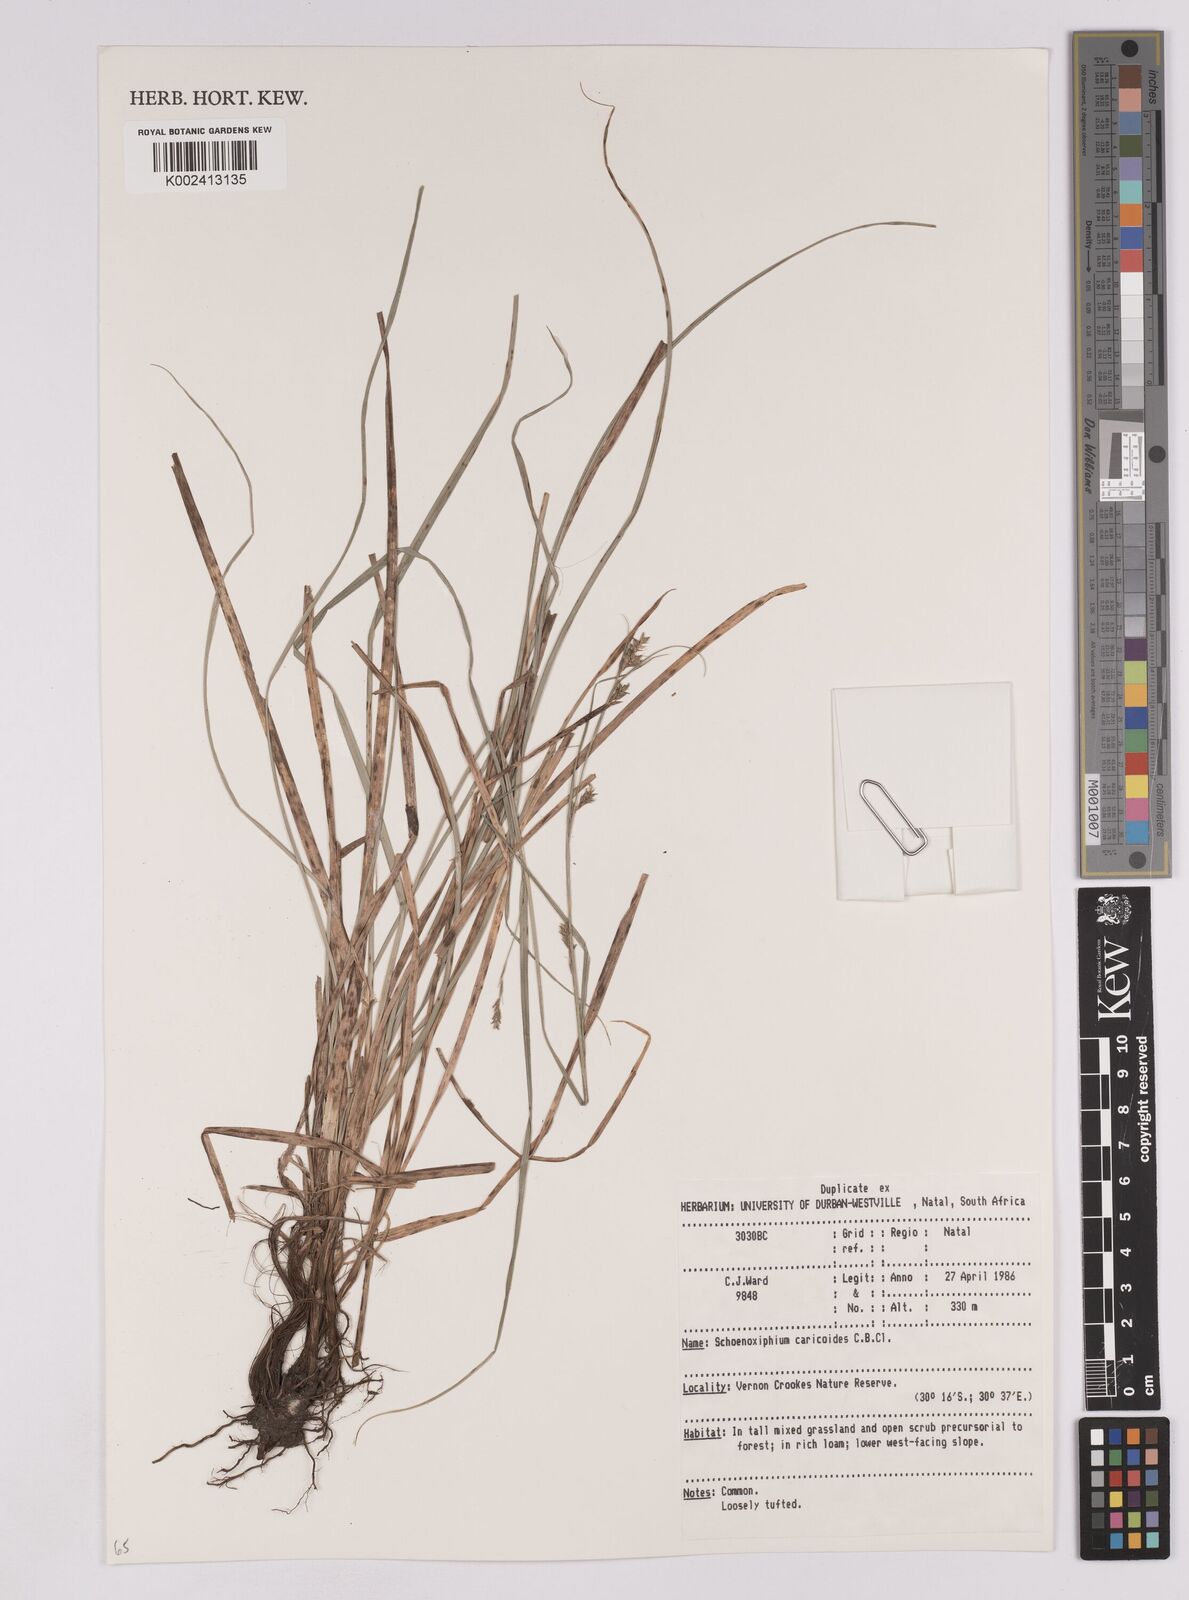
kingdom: Plantae
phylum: Tracheophyta
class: Liliopsida
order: Poales
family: Cyperaceae
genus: Carex
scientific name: Carex spartea
